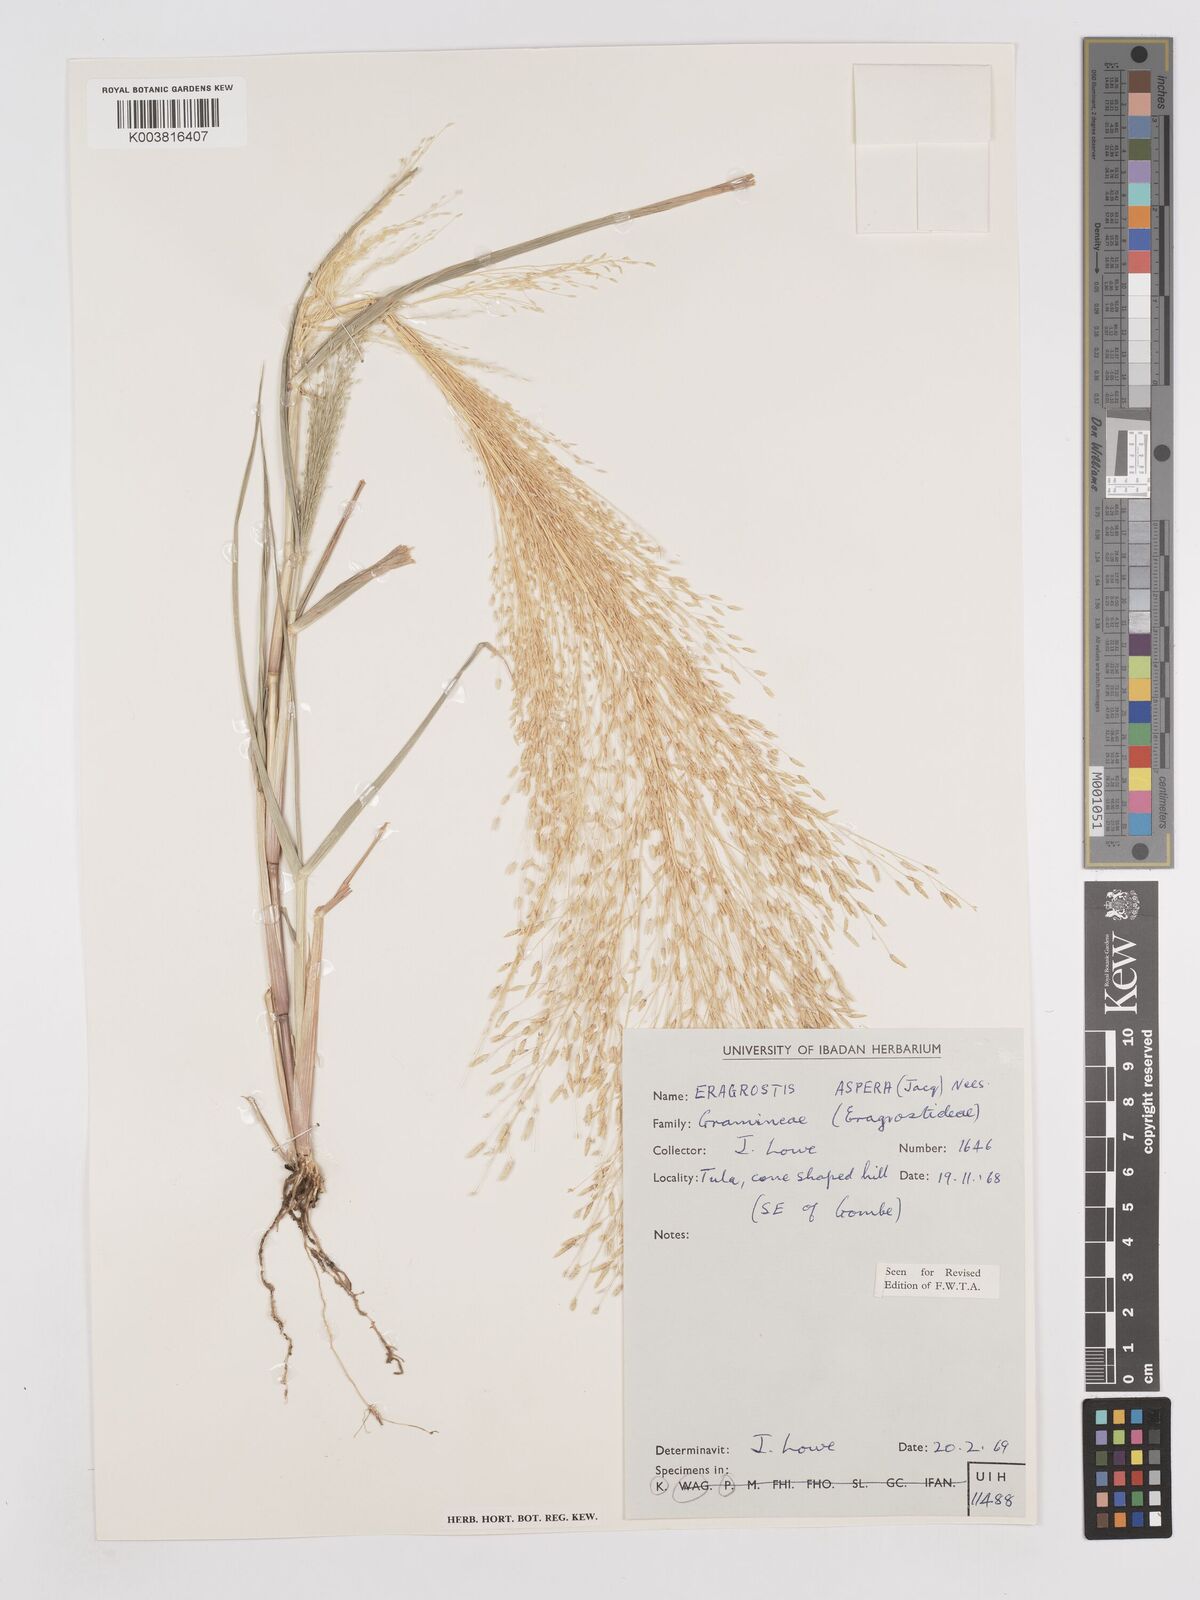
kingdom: Plantae
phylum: Tracheophyta
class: Liliopsida
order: Poales
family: Poaceae
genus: Eragrostis
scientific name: Eragrostis aspera
